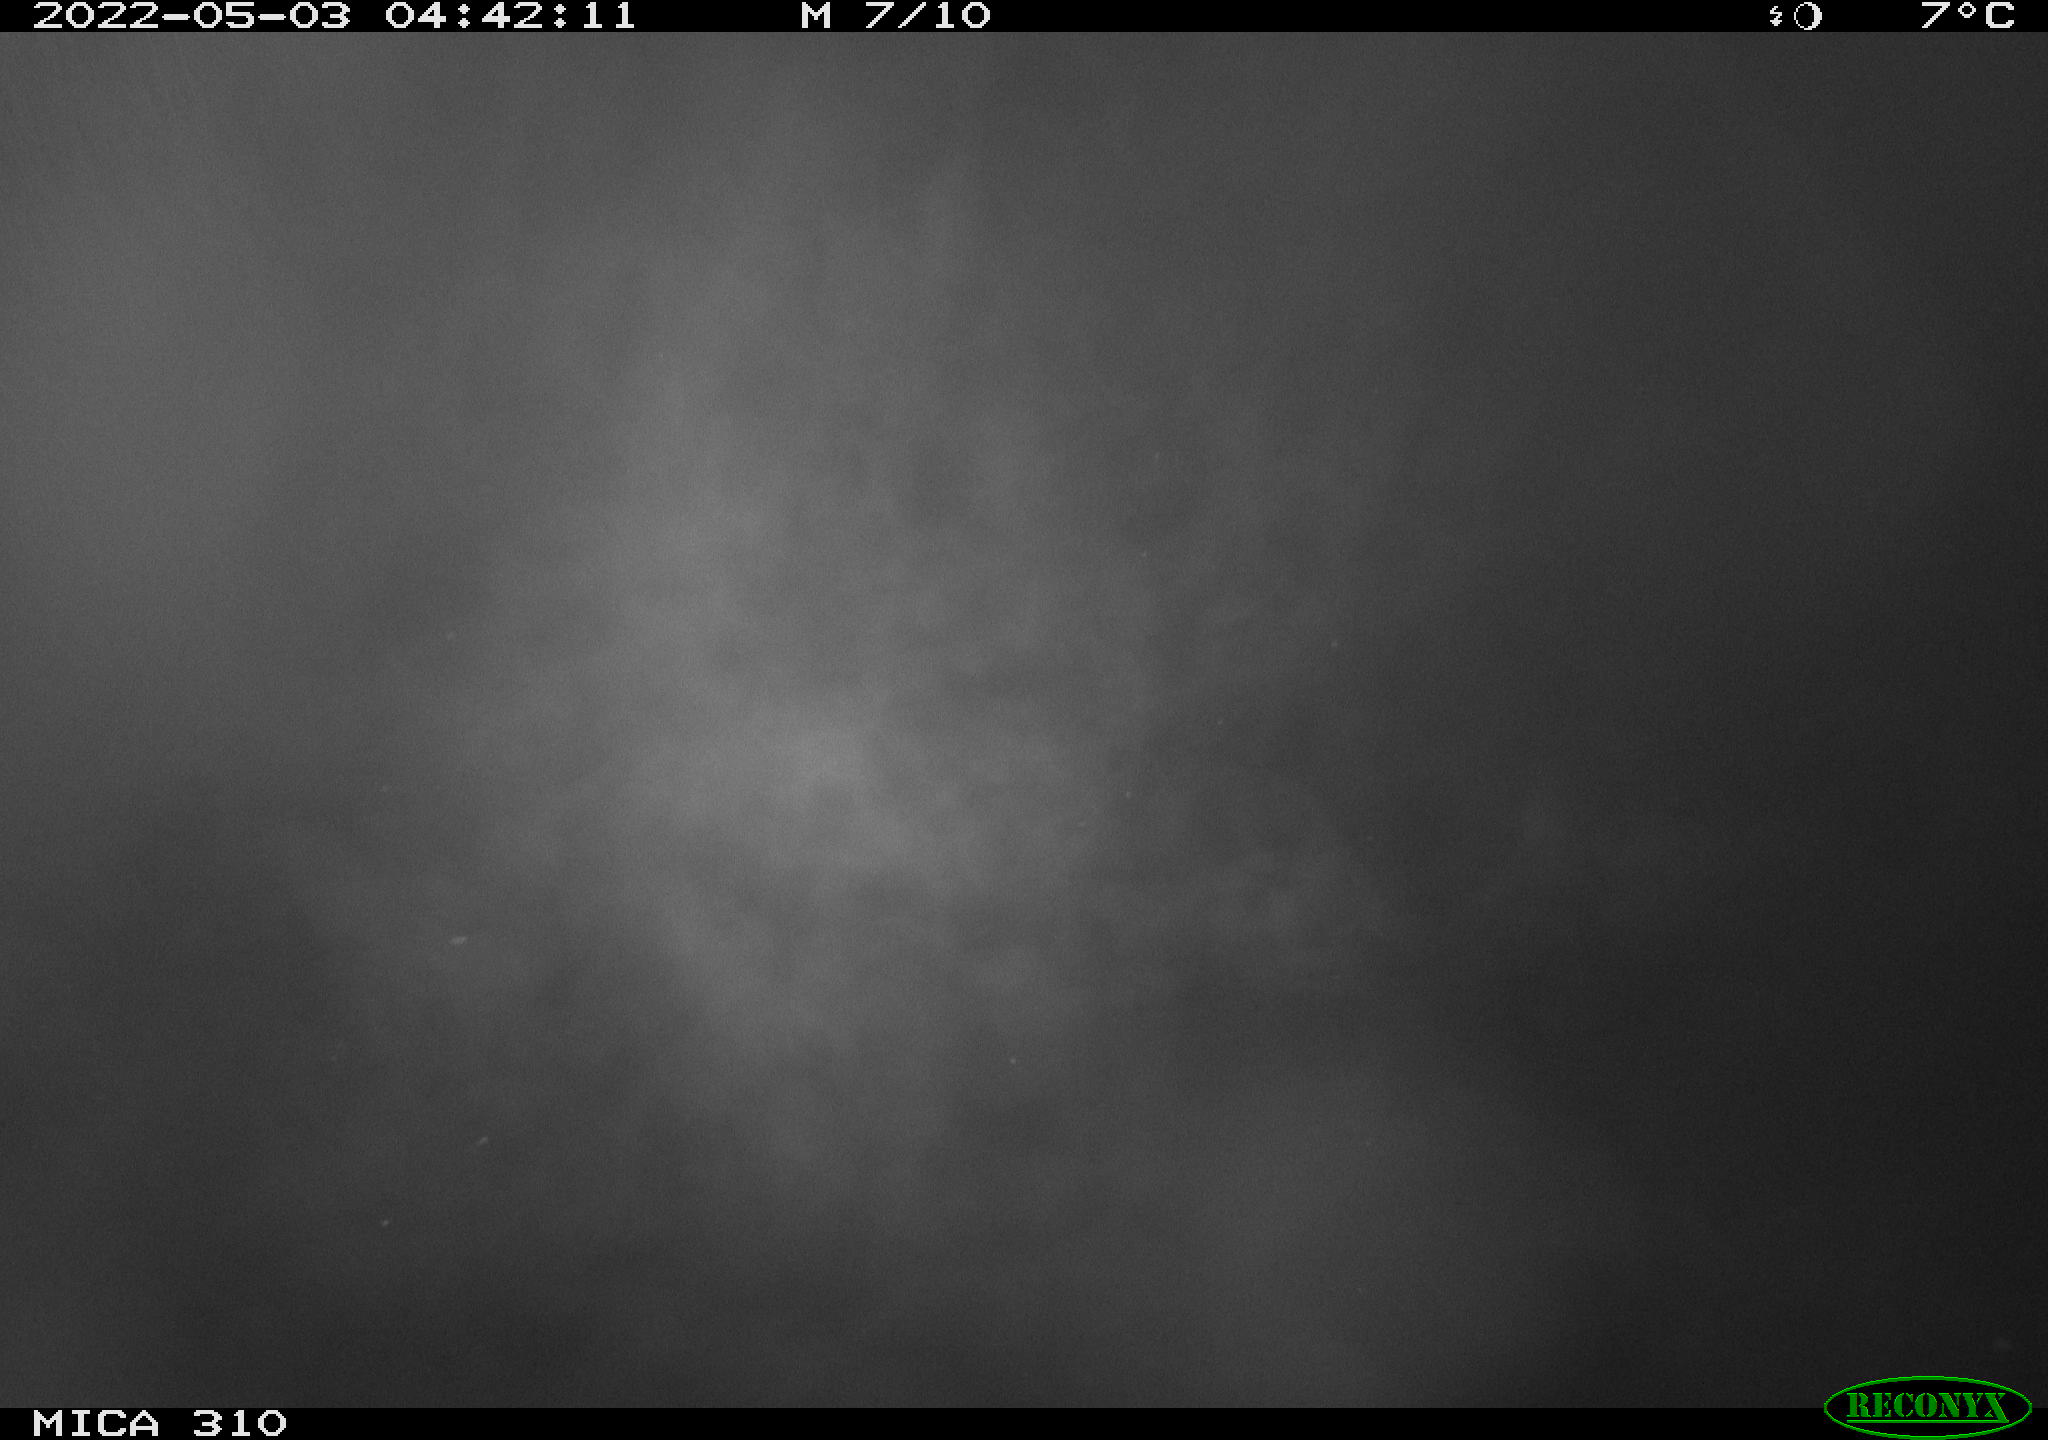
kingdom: Animalia
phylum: Chordata
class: Aves
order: Gruiformes
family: Rallidae
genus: Fulica
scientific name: Fulica atra
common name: Eurasian coot
